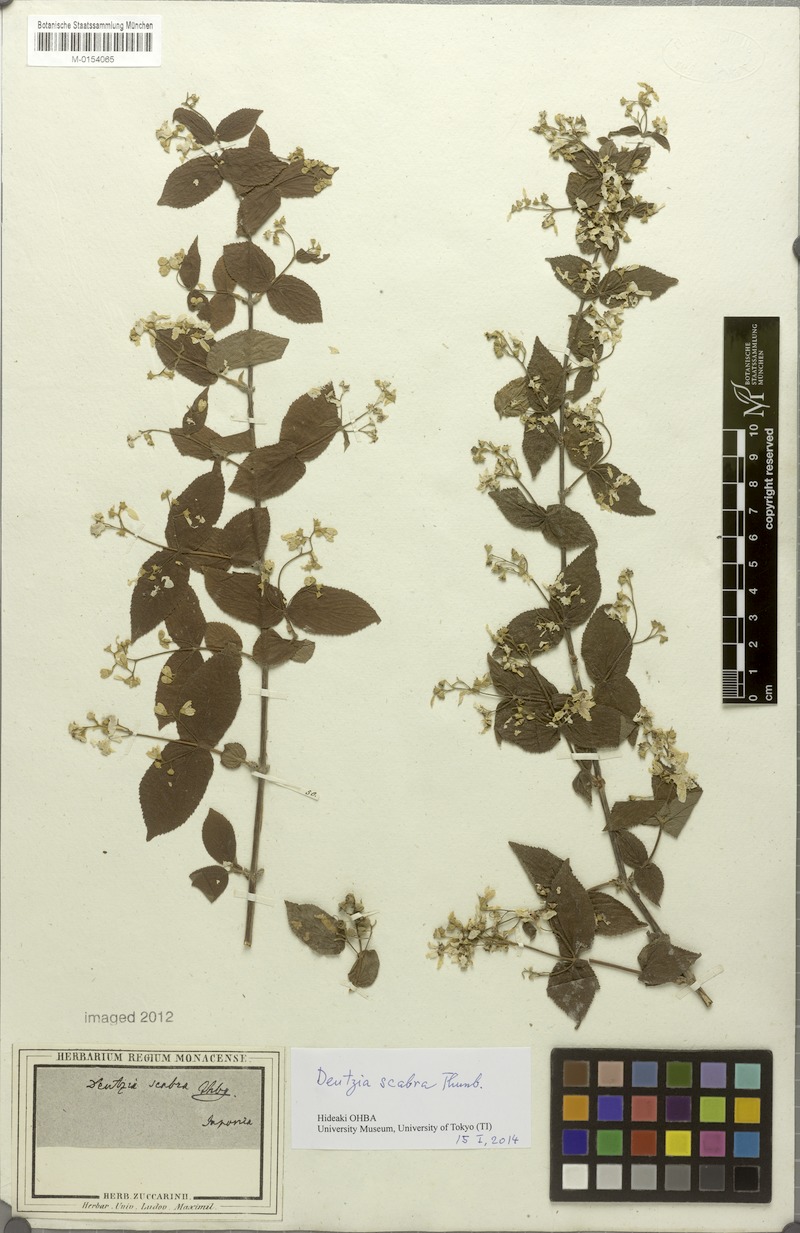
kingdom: Plantae
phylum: Tracheophyta
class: Magnoliopsida
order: Cornales
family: Hydrangeaceae
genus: Deutzia
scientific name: Deutzia scabra
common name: Deutzia
